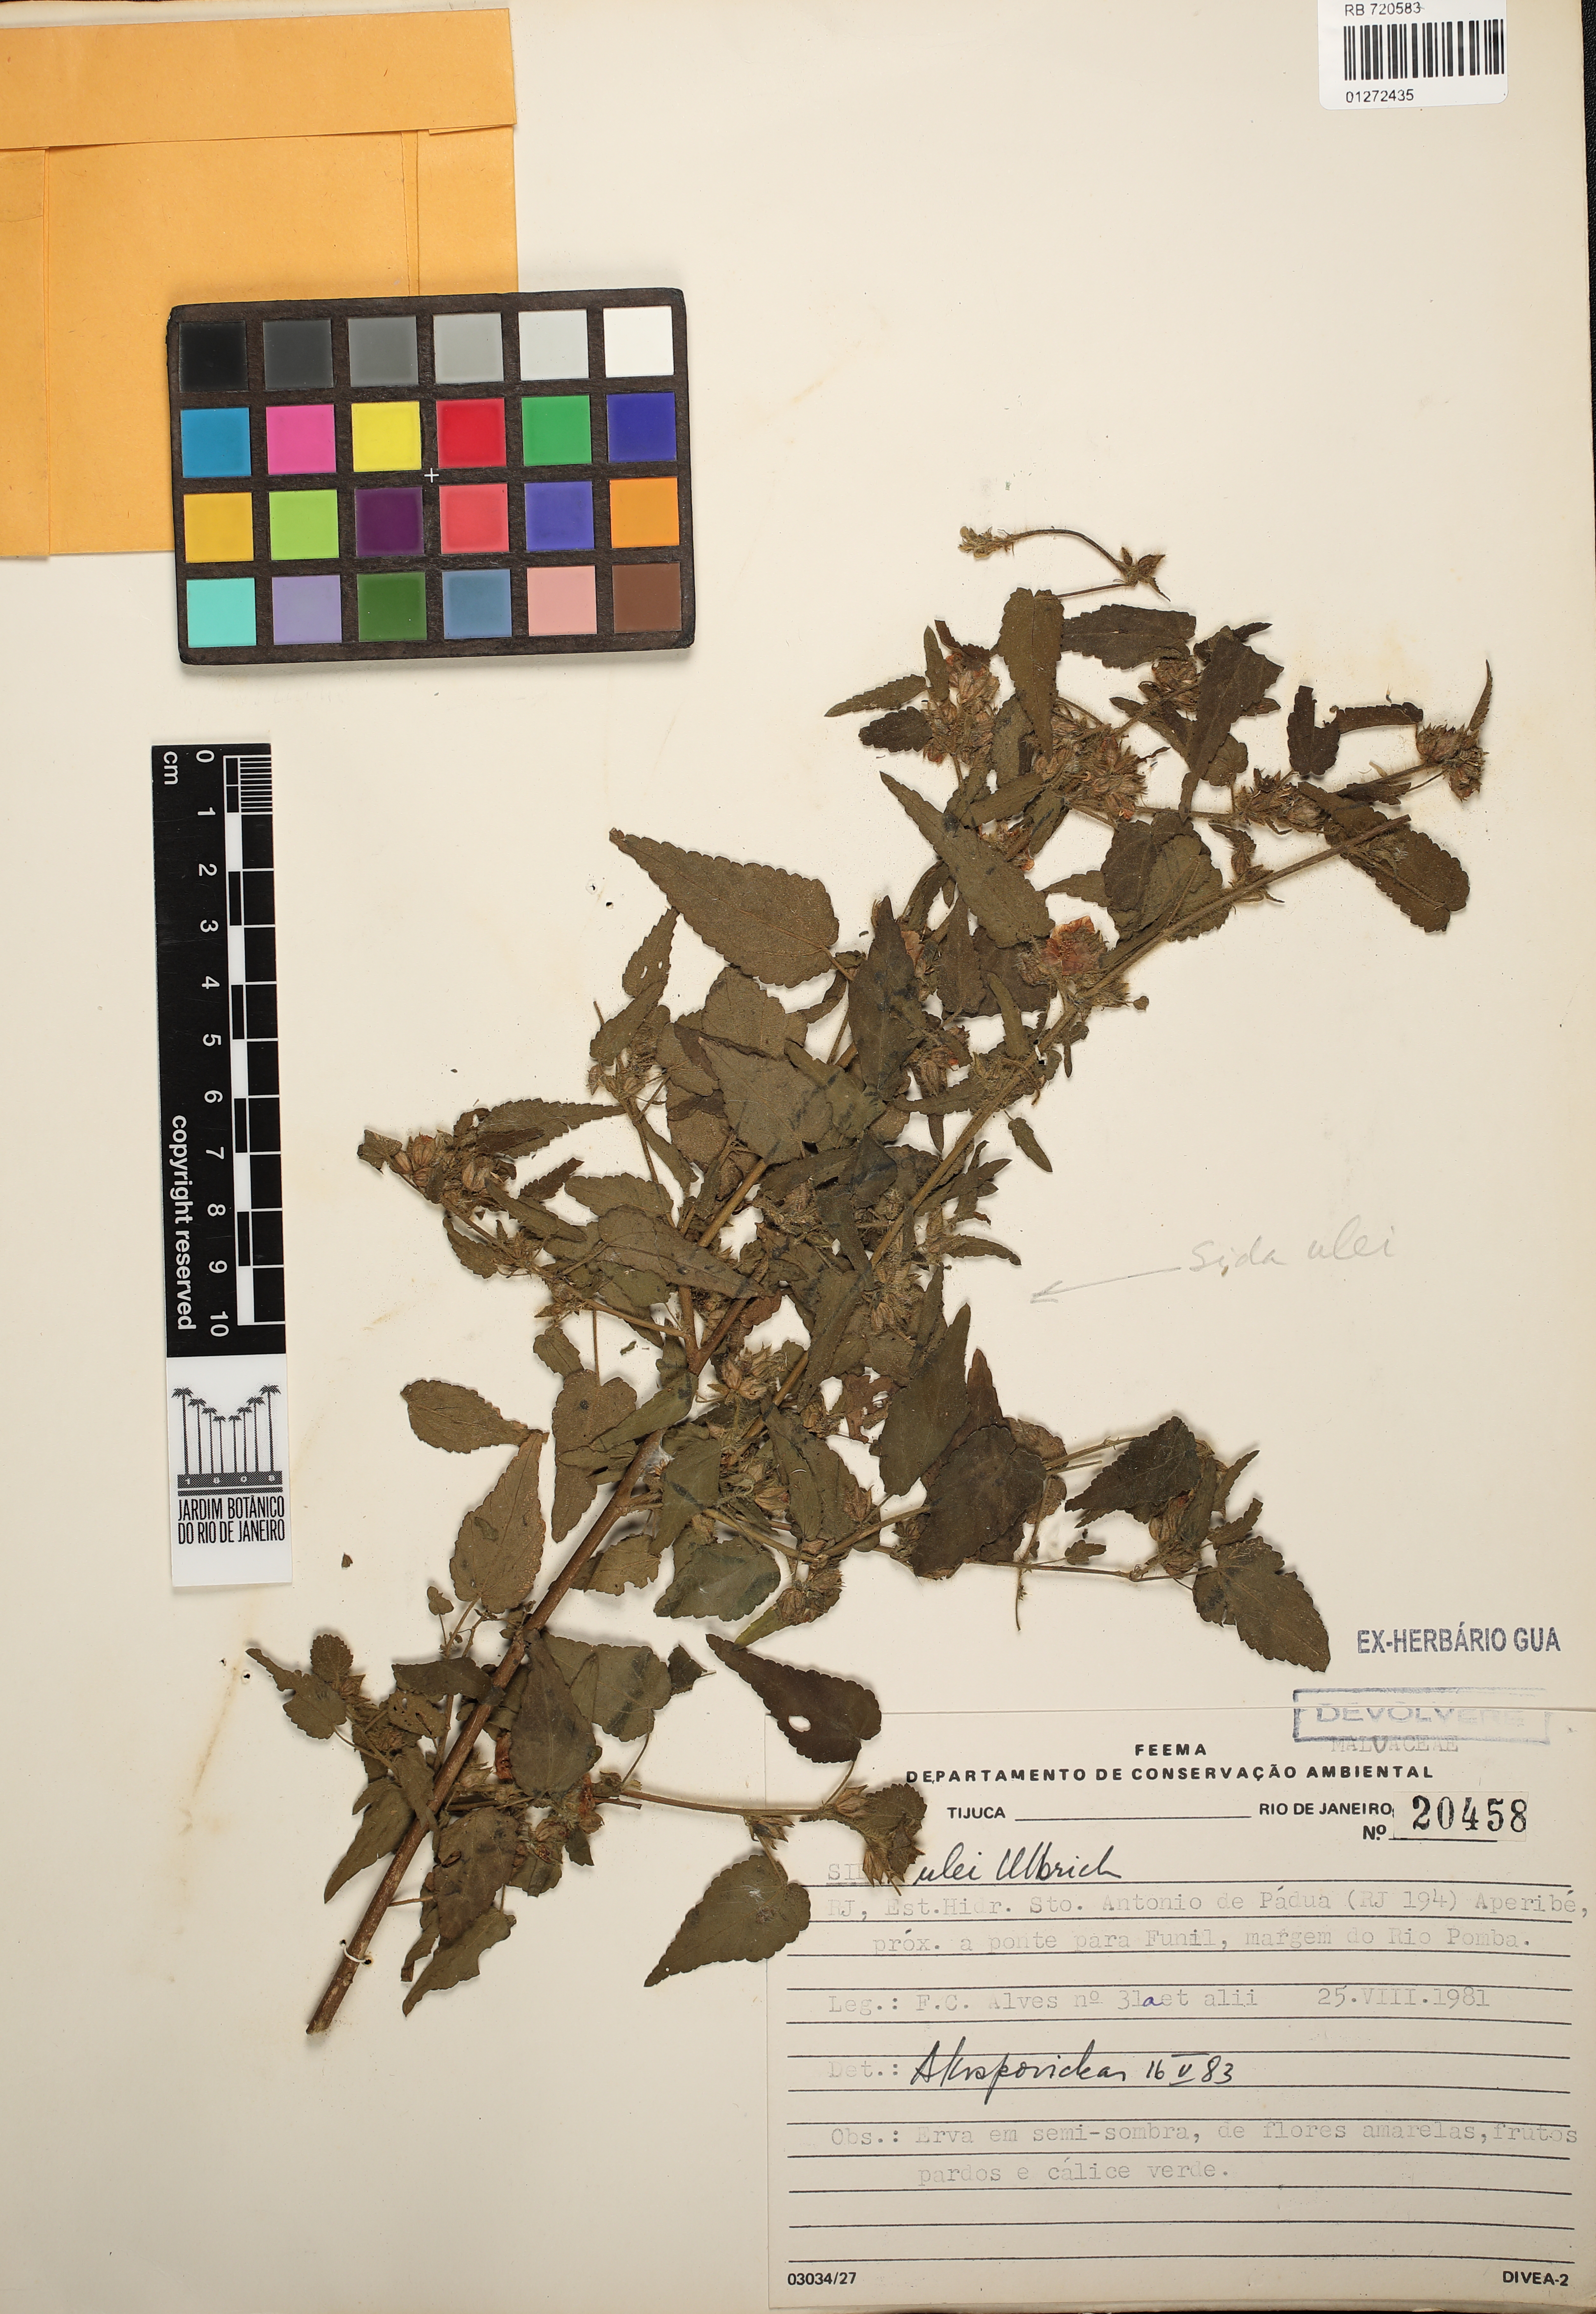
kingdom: Plantae
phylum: Tracheophyta
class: Magnoliopsida
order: Malvales
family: Malvaceae
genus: Sida
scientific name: Sida ulei
